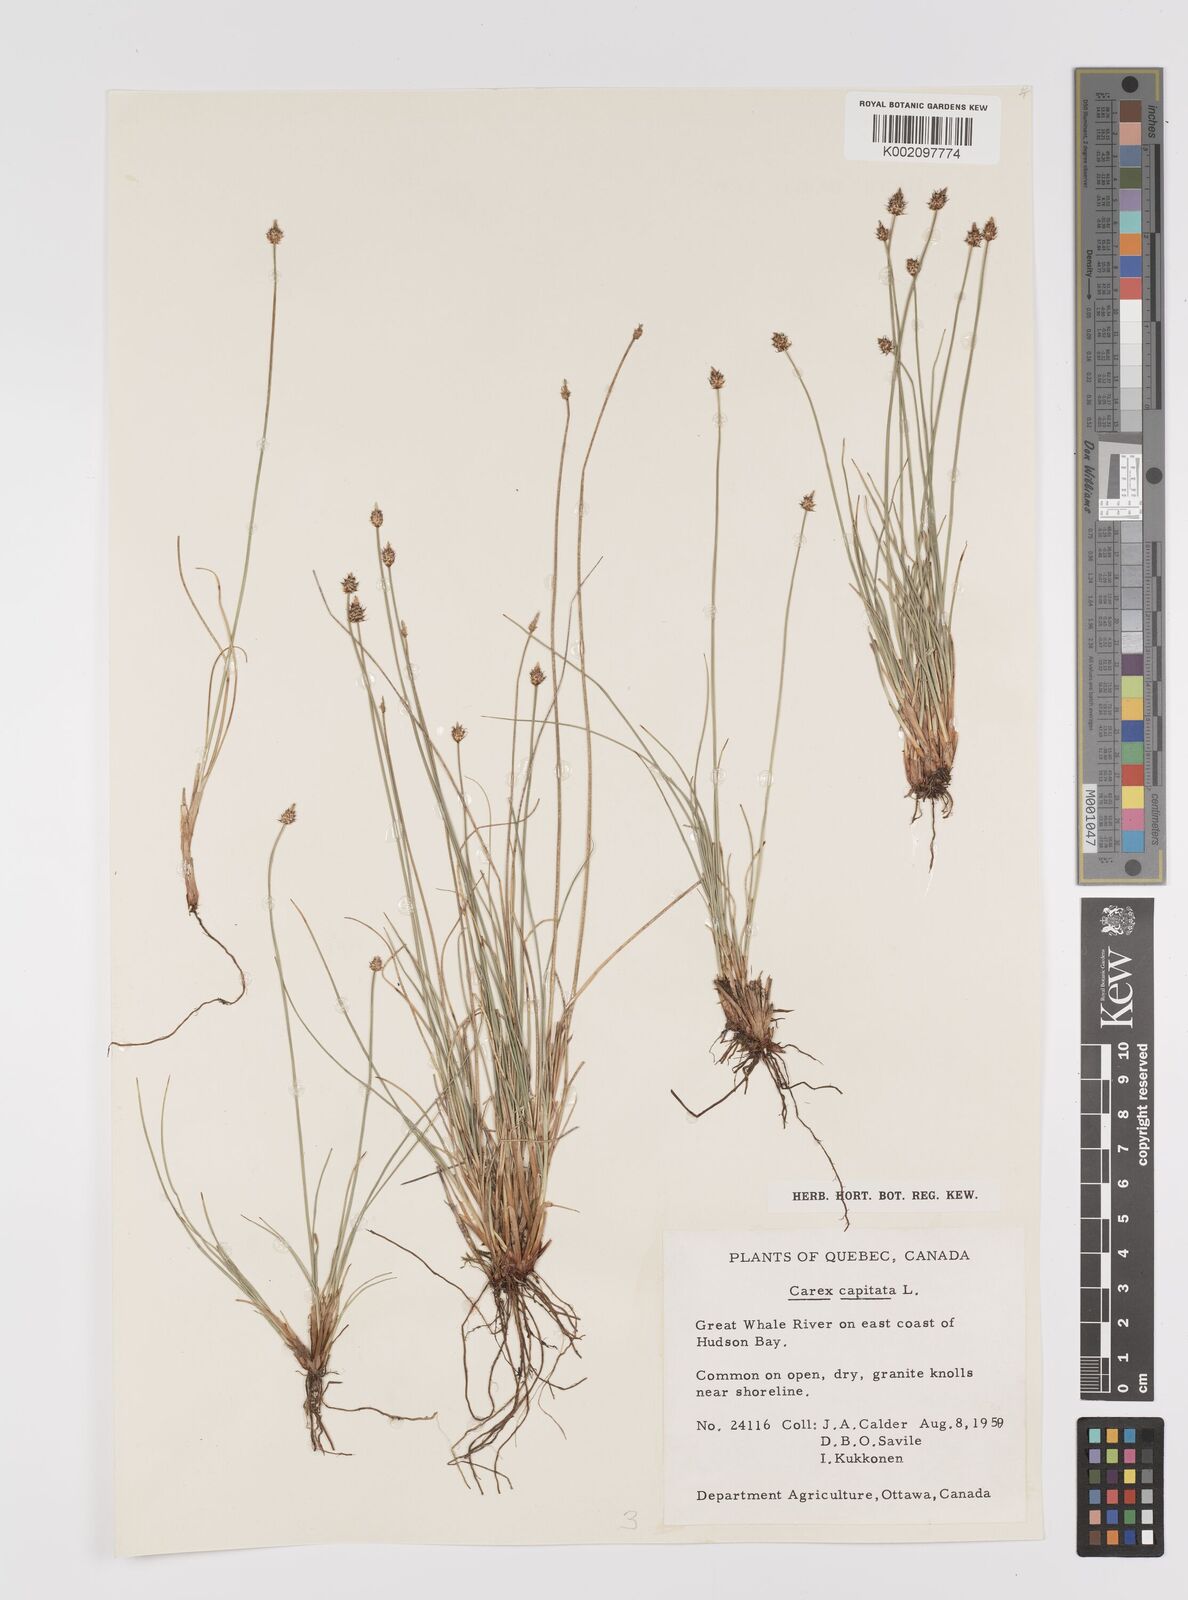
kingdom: Plantae
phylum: Tracheophyta
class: Liliopsida
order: Poales
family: Cyperaceae
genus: Carex
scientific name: Carex capitata
